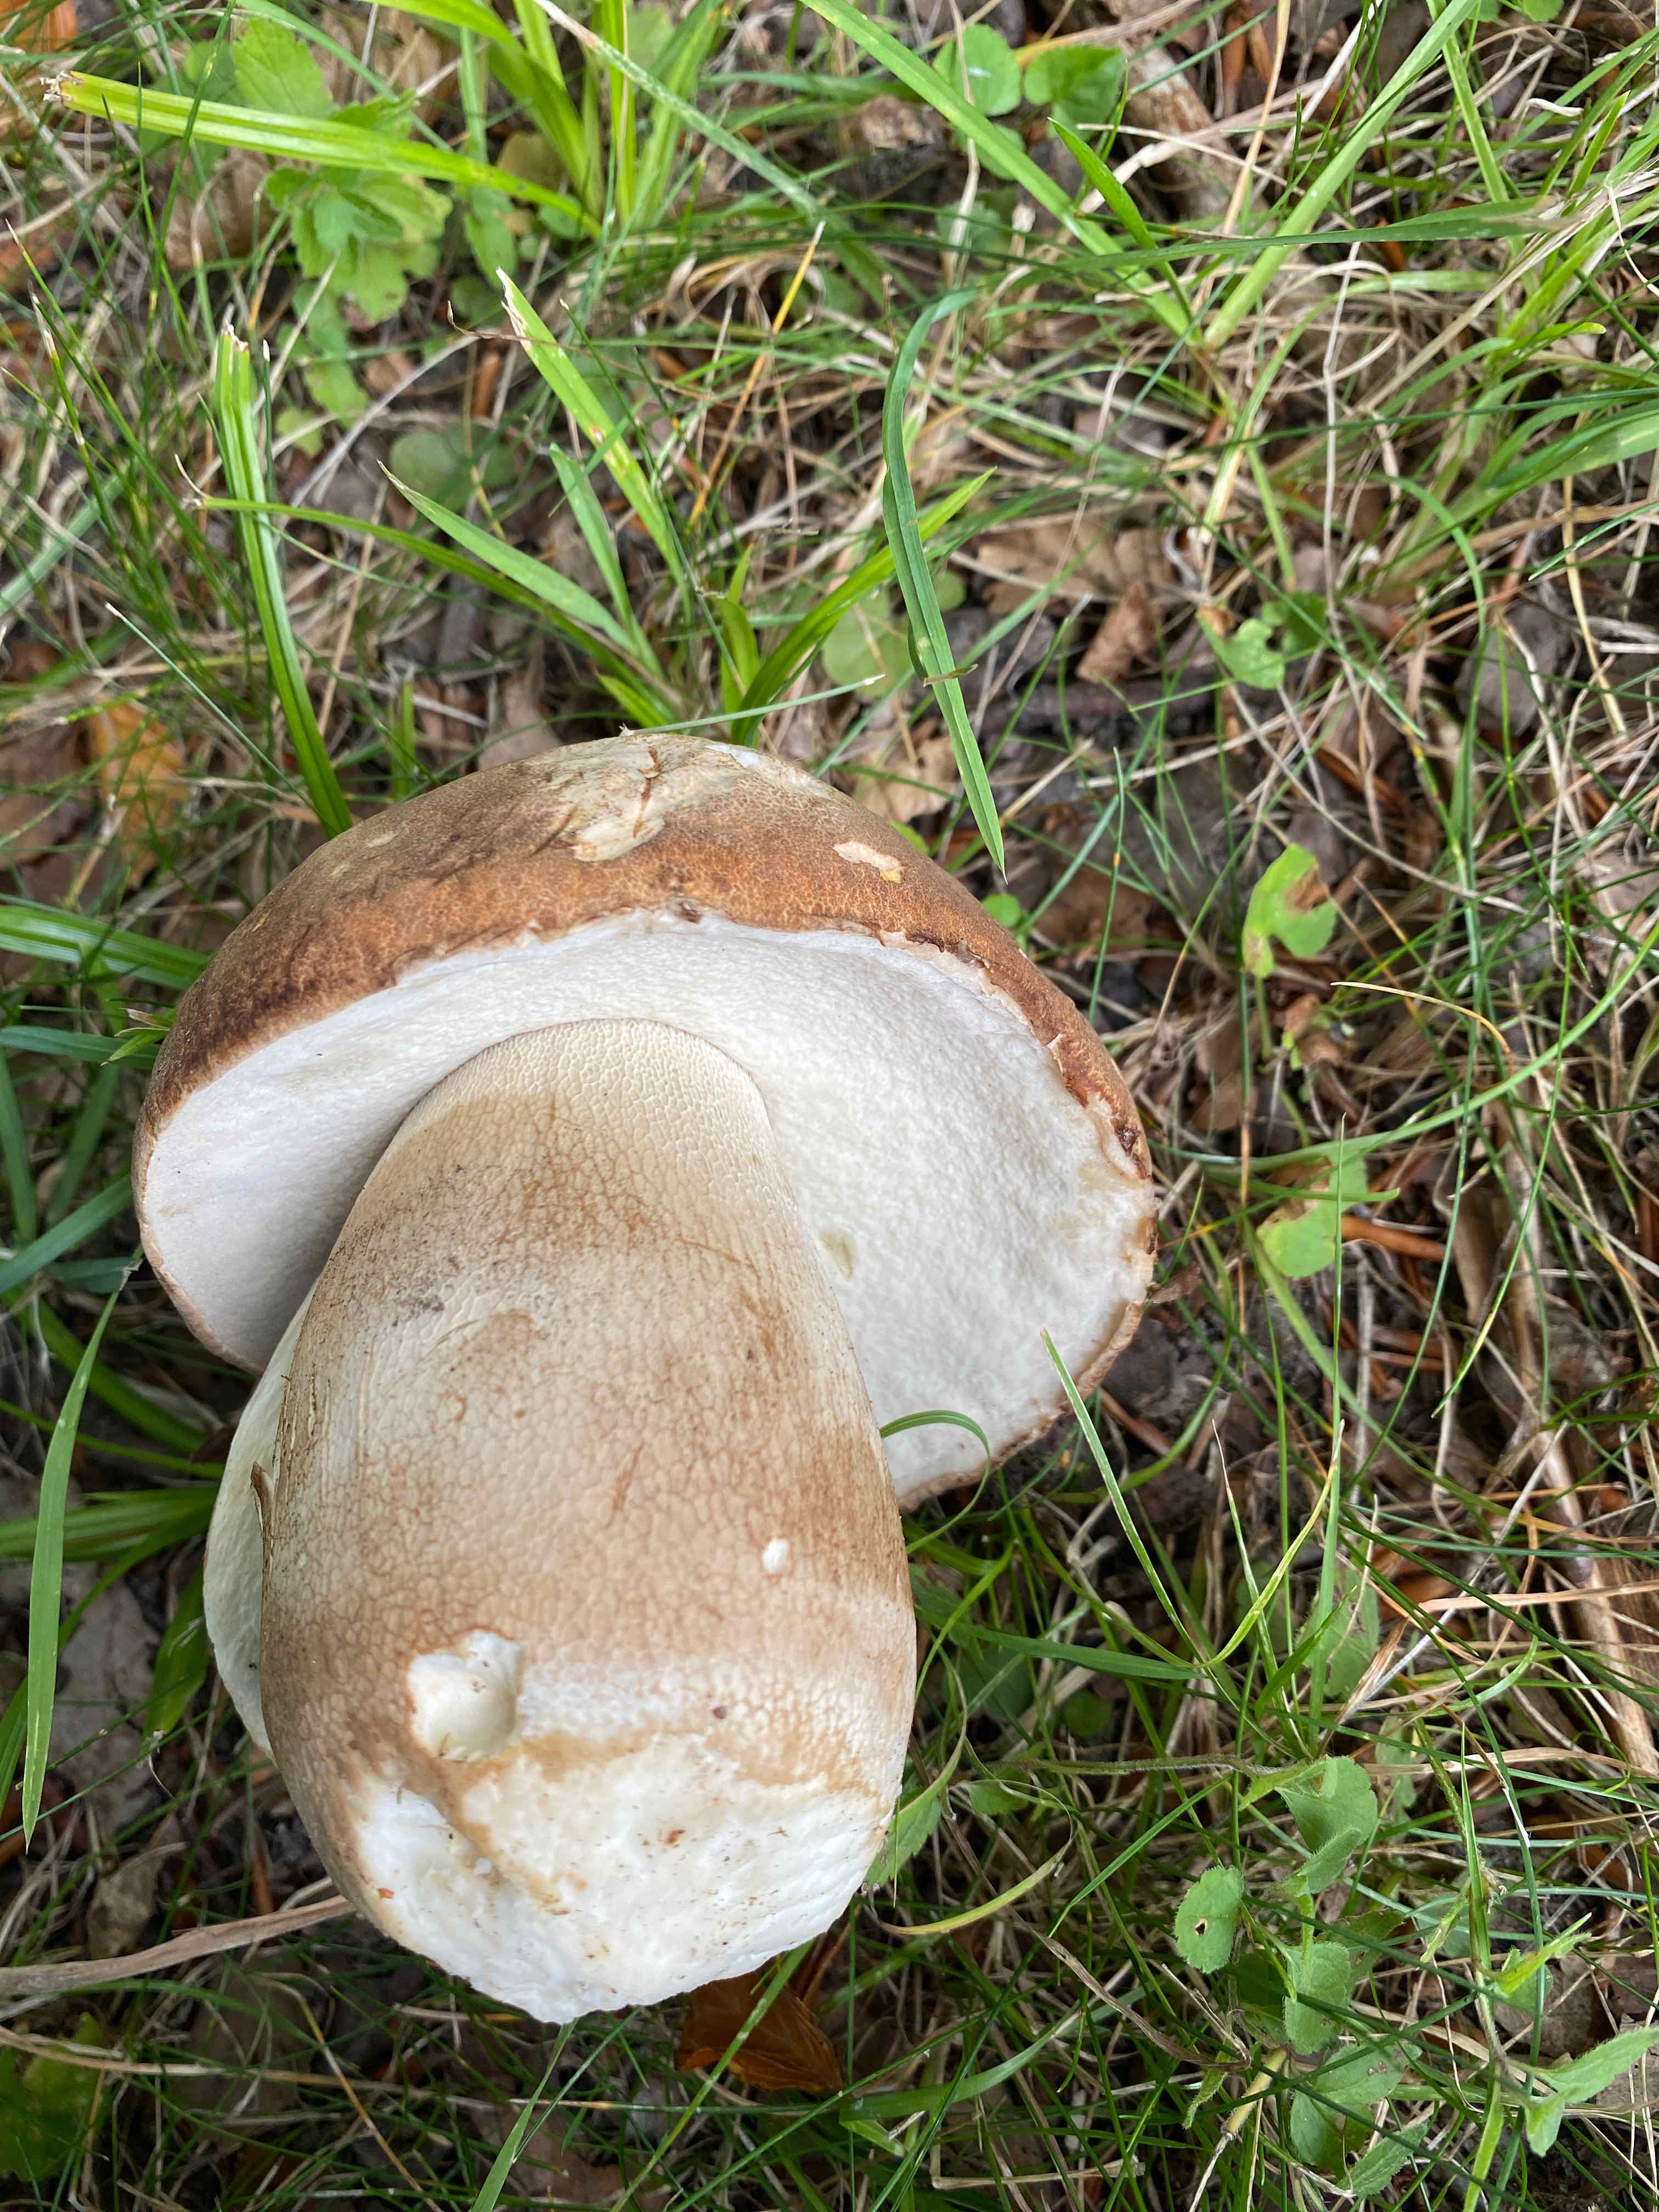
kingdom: Fungi
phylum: Basidiomycota
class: Agaricomycetes
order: Boletales
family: Boletaceae
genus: Boletus
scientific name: Boletus reticulatus
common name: sommer-rørhat
